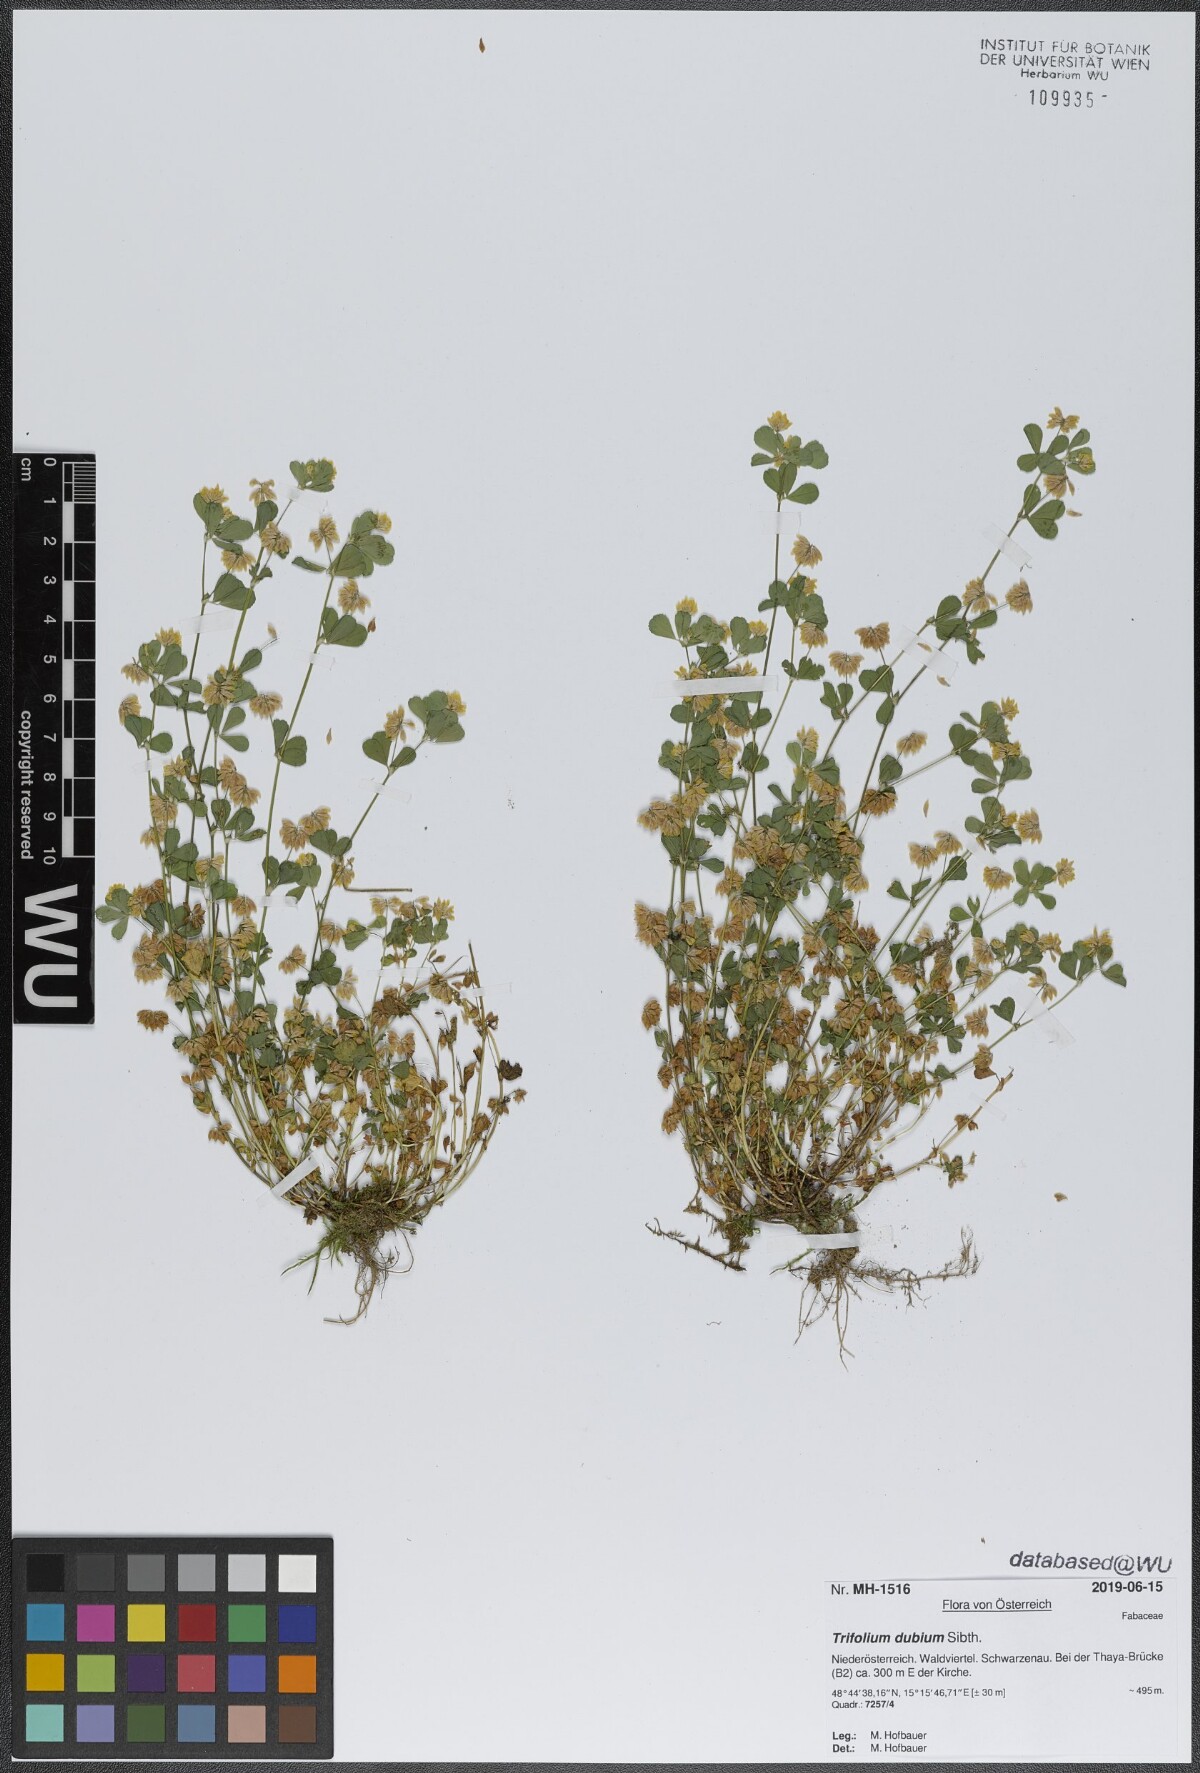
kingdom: Plantae
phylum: Tracheophyta
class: Magnoliopsida
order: Fabales
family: Fabaceae
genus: Trifolium
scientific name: Trifolium dubium
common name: Suckling clover
